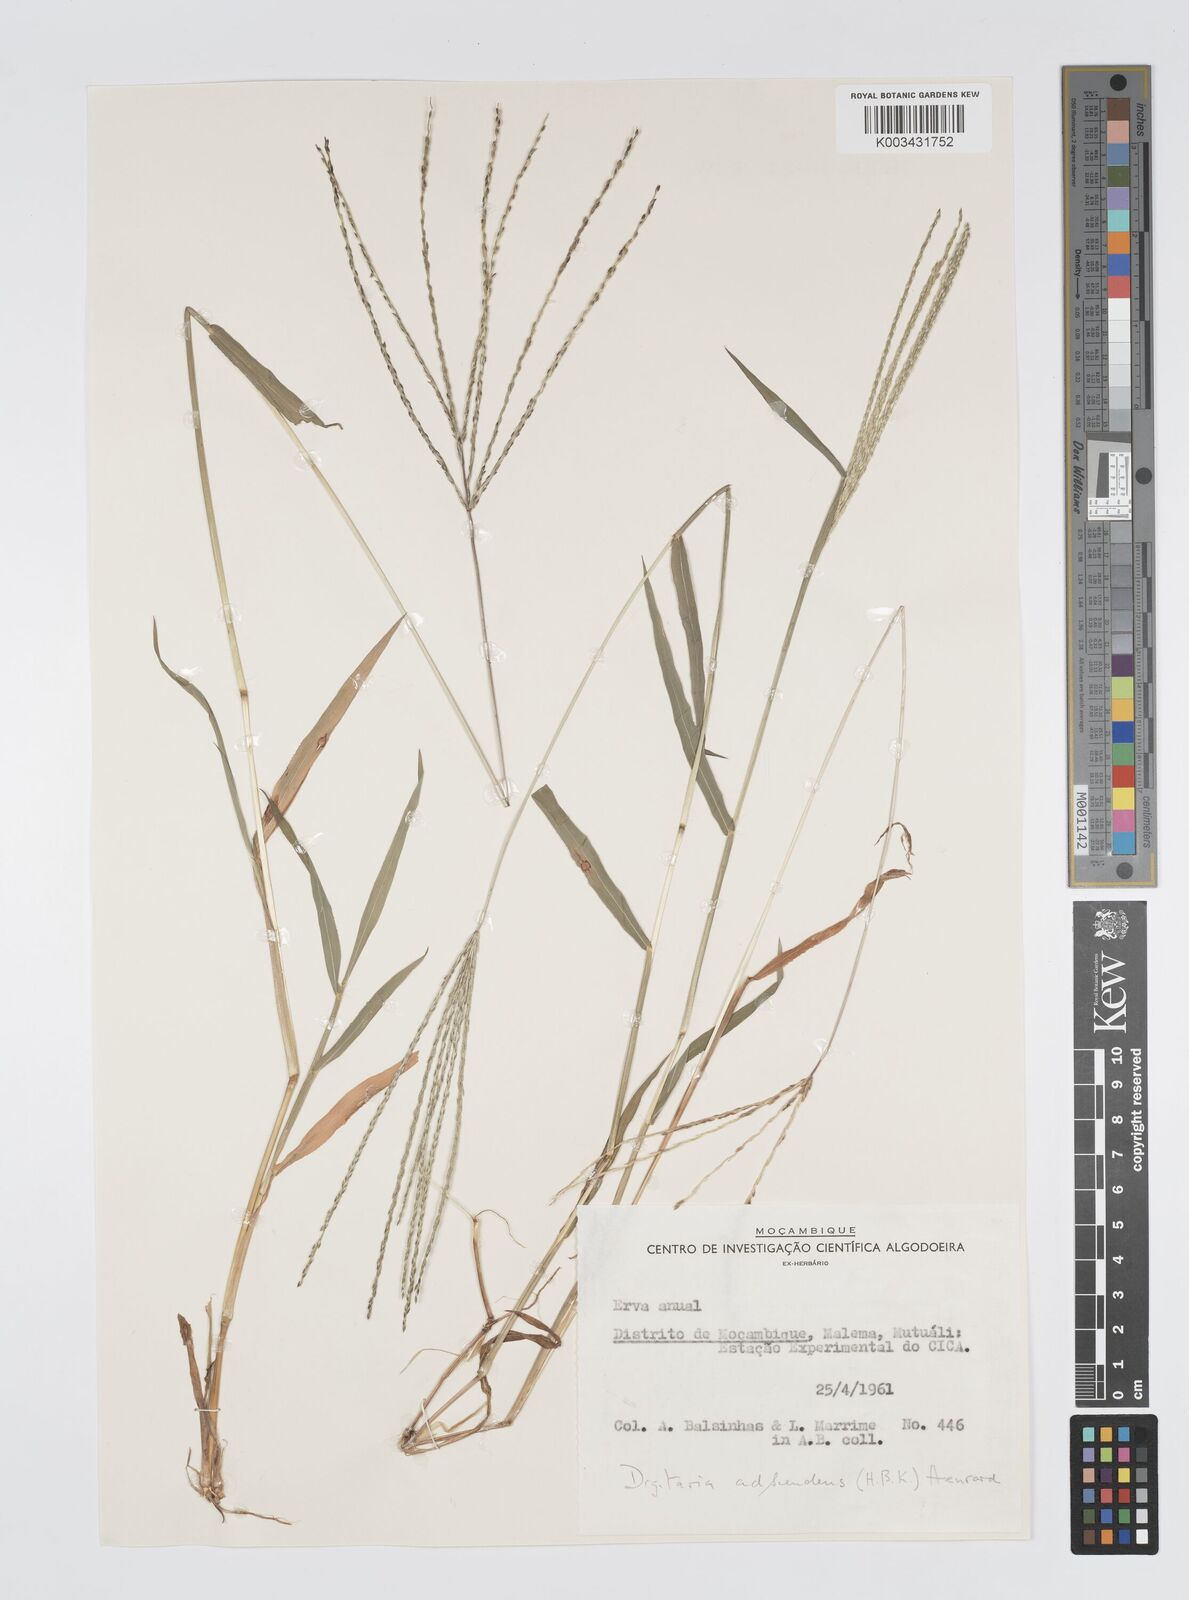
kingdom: Plantae
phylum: Tracheophyta
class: Liliopsida
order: Poales
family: Poaceae
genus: Digitaria
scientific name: Digitaria nuda
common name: Naked crabgrass
